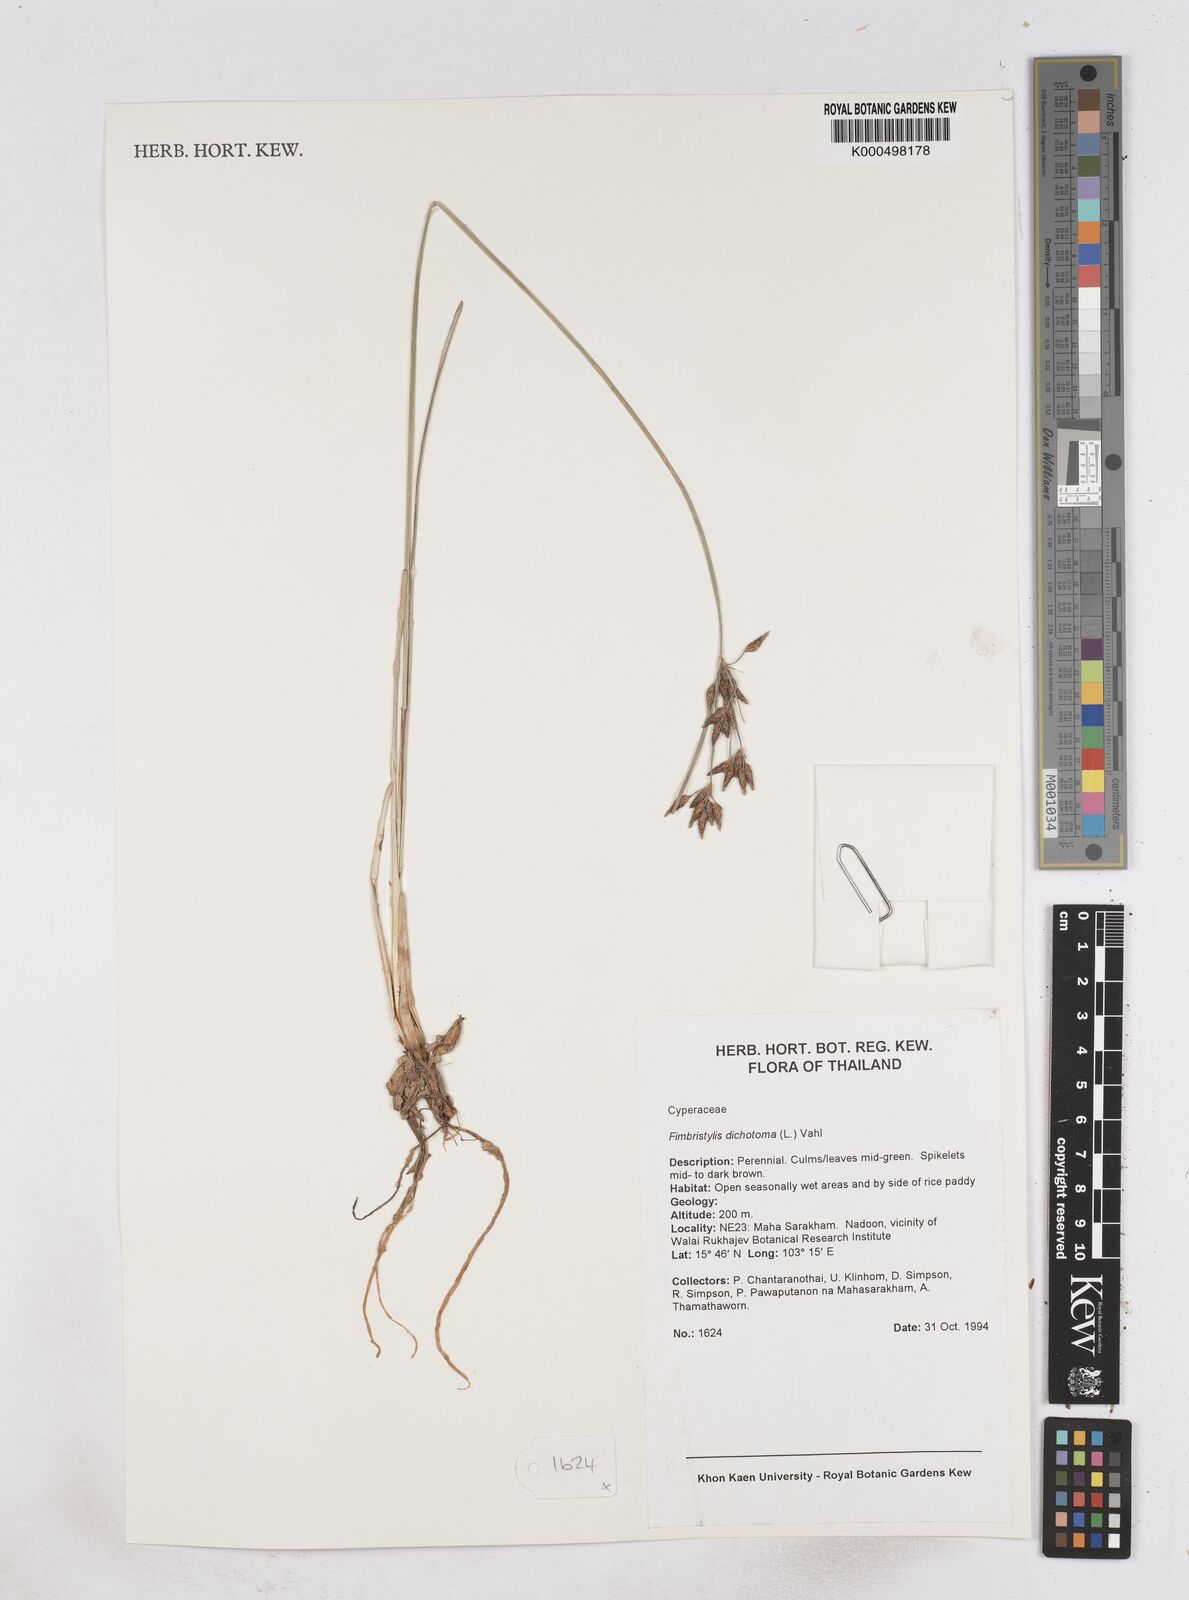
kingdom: Plantae
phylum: Tracheophyta
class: Liliopsida
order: Poales
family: Cyperaceae
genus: Fimbristylis
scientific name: Fimbristylis dichotoma
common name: Forked fimbry
